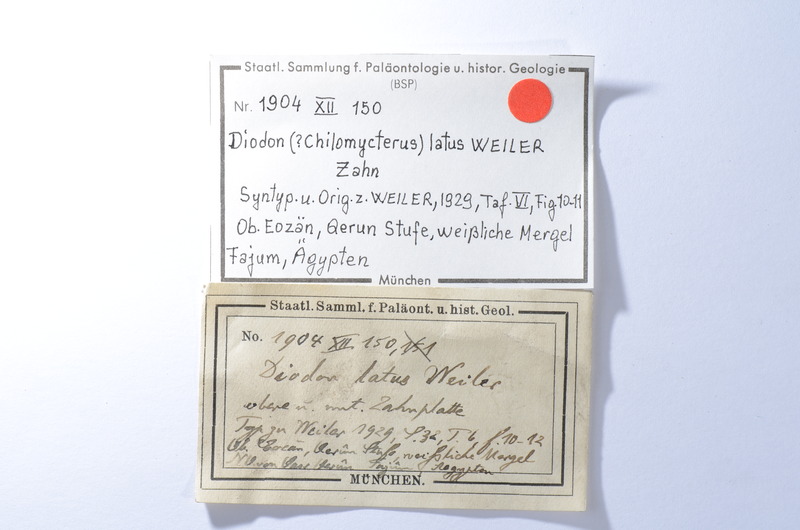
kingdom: Animalia
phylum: Chordata
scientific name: Chordata
